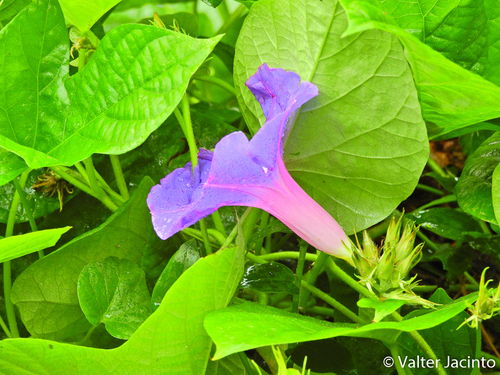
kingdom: Plantae
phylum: Tracheophyta
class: Magnoliopsida
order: Solanales
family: Convolvulaceae
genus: Ipomoea
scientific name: Ipomoea indica
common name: Blue dawnflower
